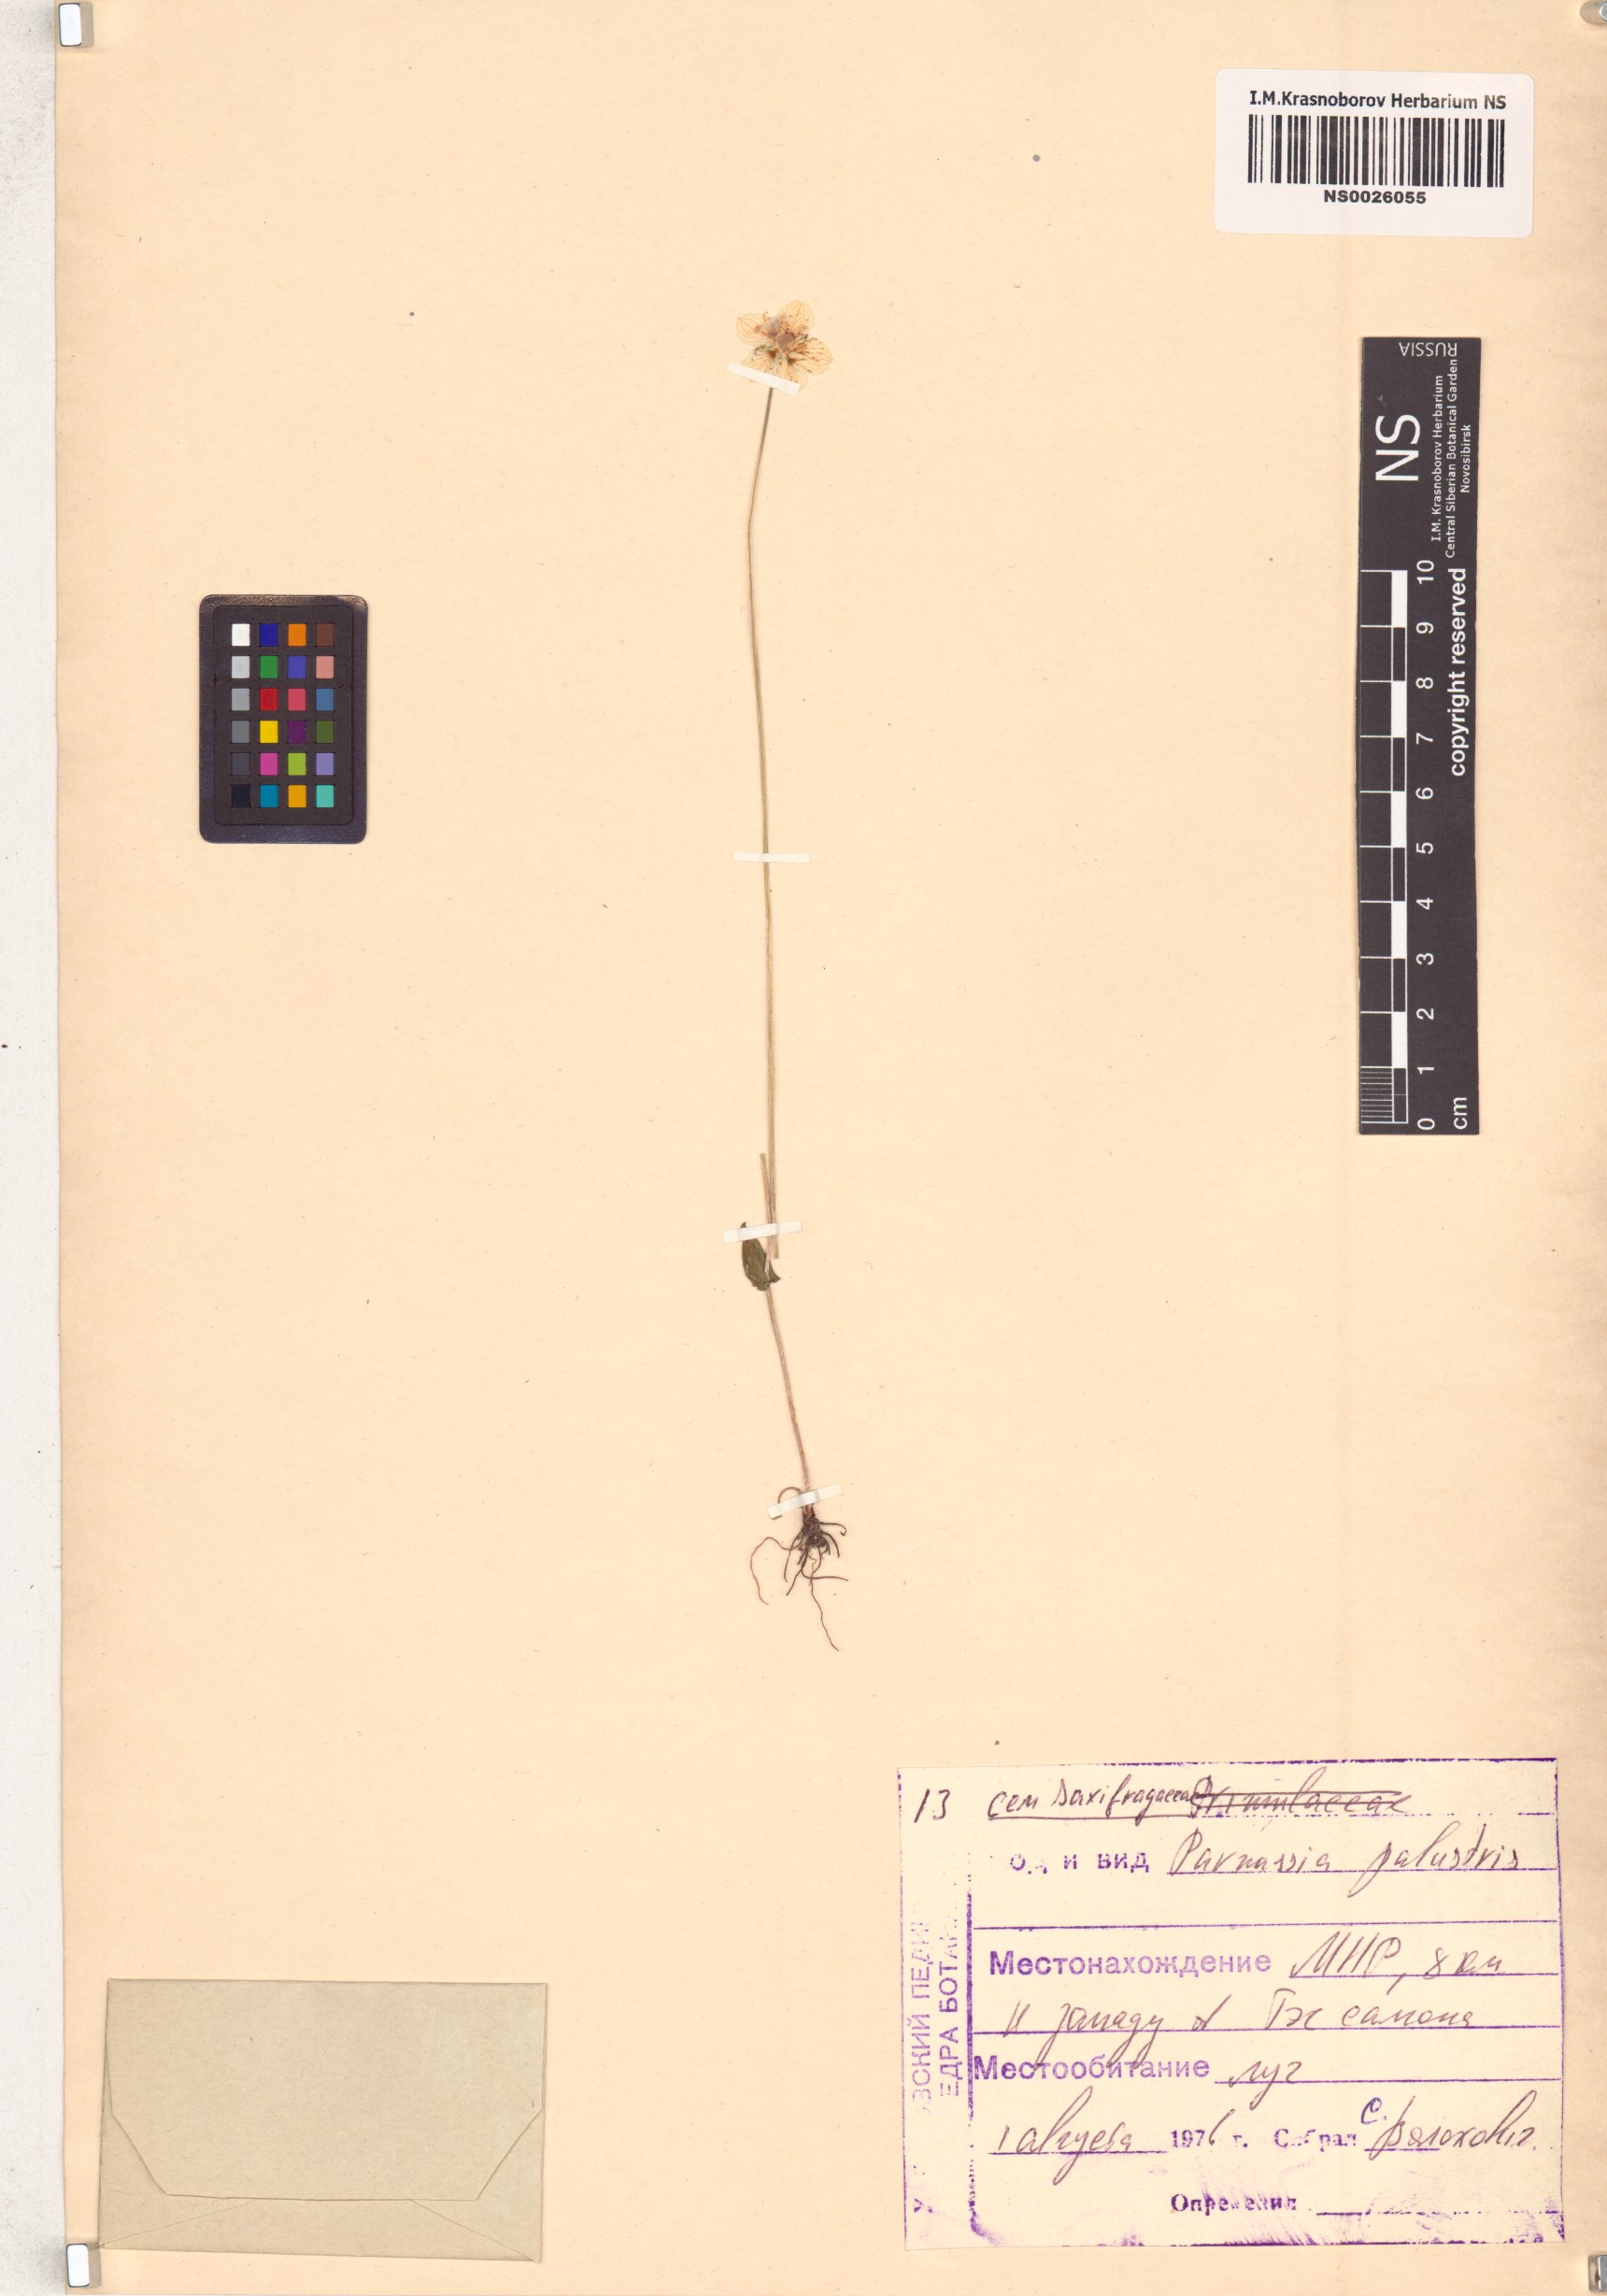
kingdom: Plantae
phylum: Tracheophyta
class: Magnoliopsida
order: Celastrales
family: Parnassiaceae
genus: Parnassia
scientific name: Parnassia palustris
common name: Grass-of-parnassus
